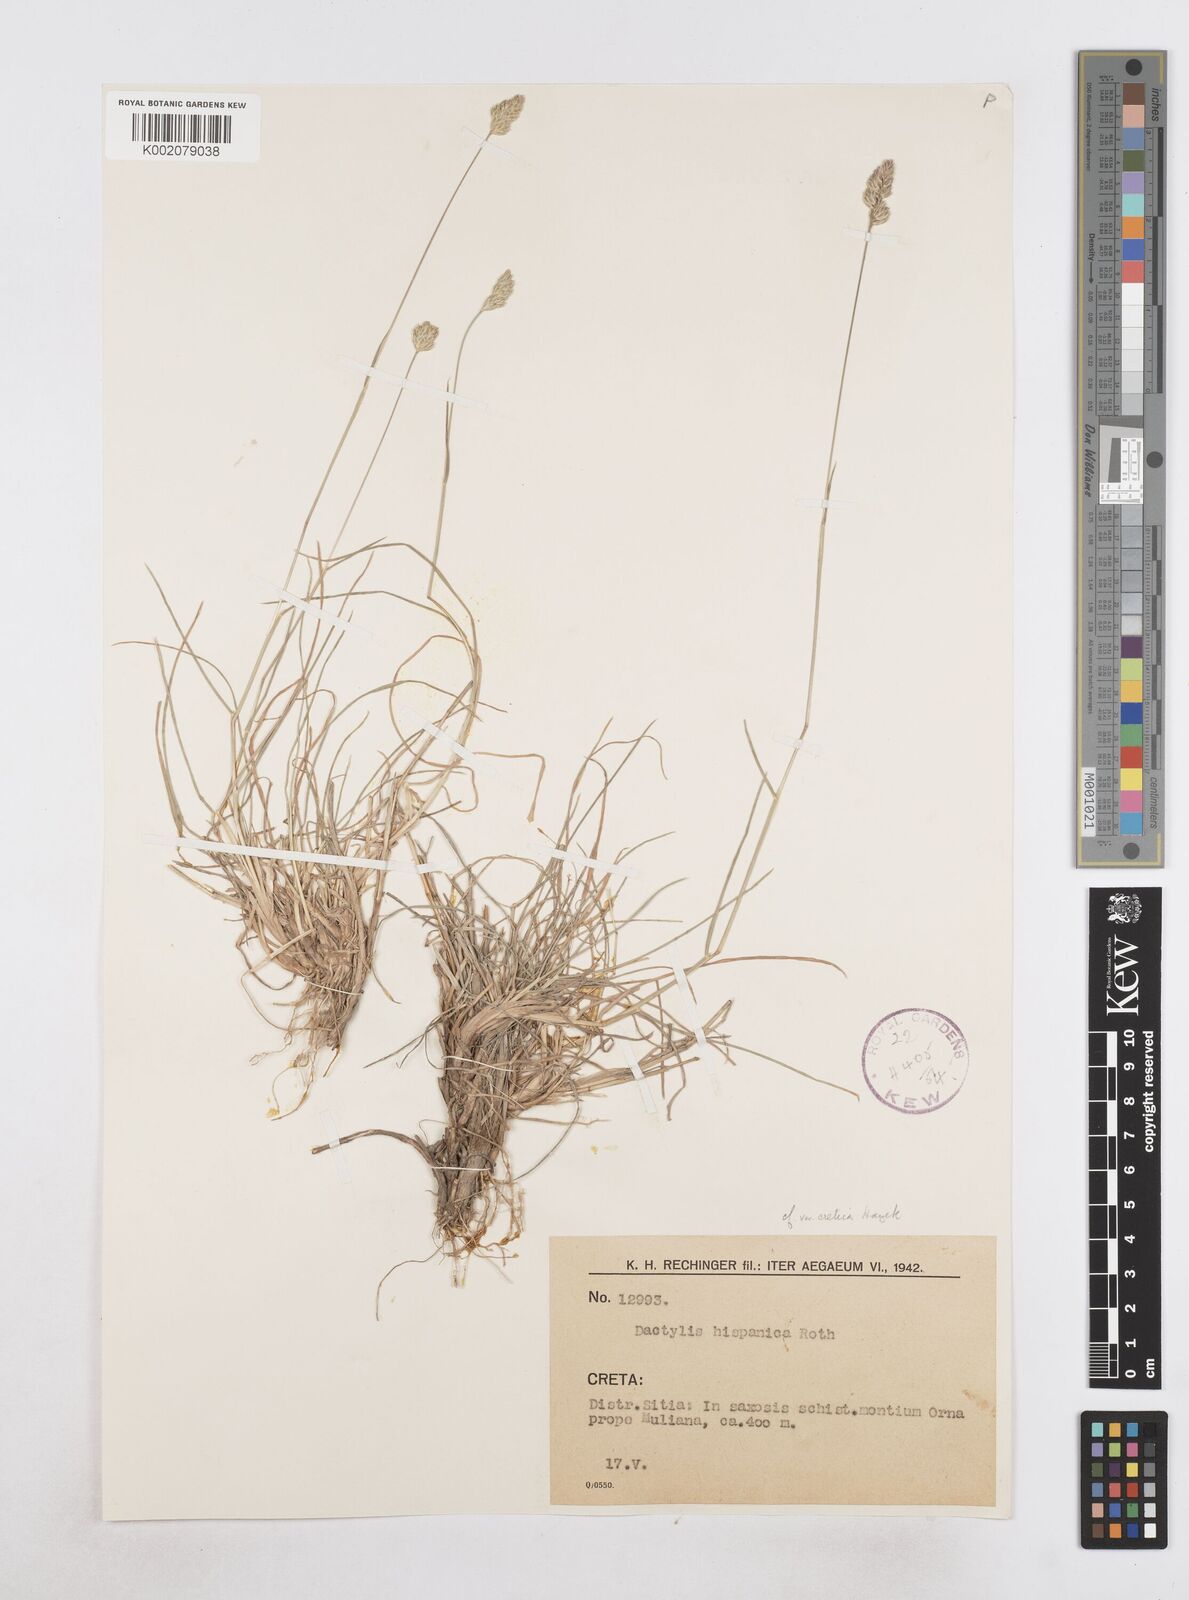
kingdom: Plantae
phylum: Tracheophyta
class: Liliopsida
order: Poales
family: Poaceae
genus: Dactylis
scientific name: Dactylis glomerata
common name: Orchardgrass
